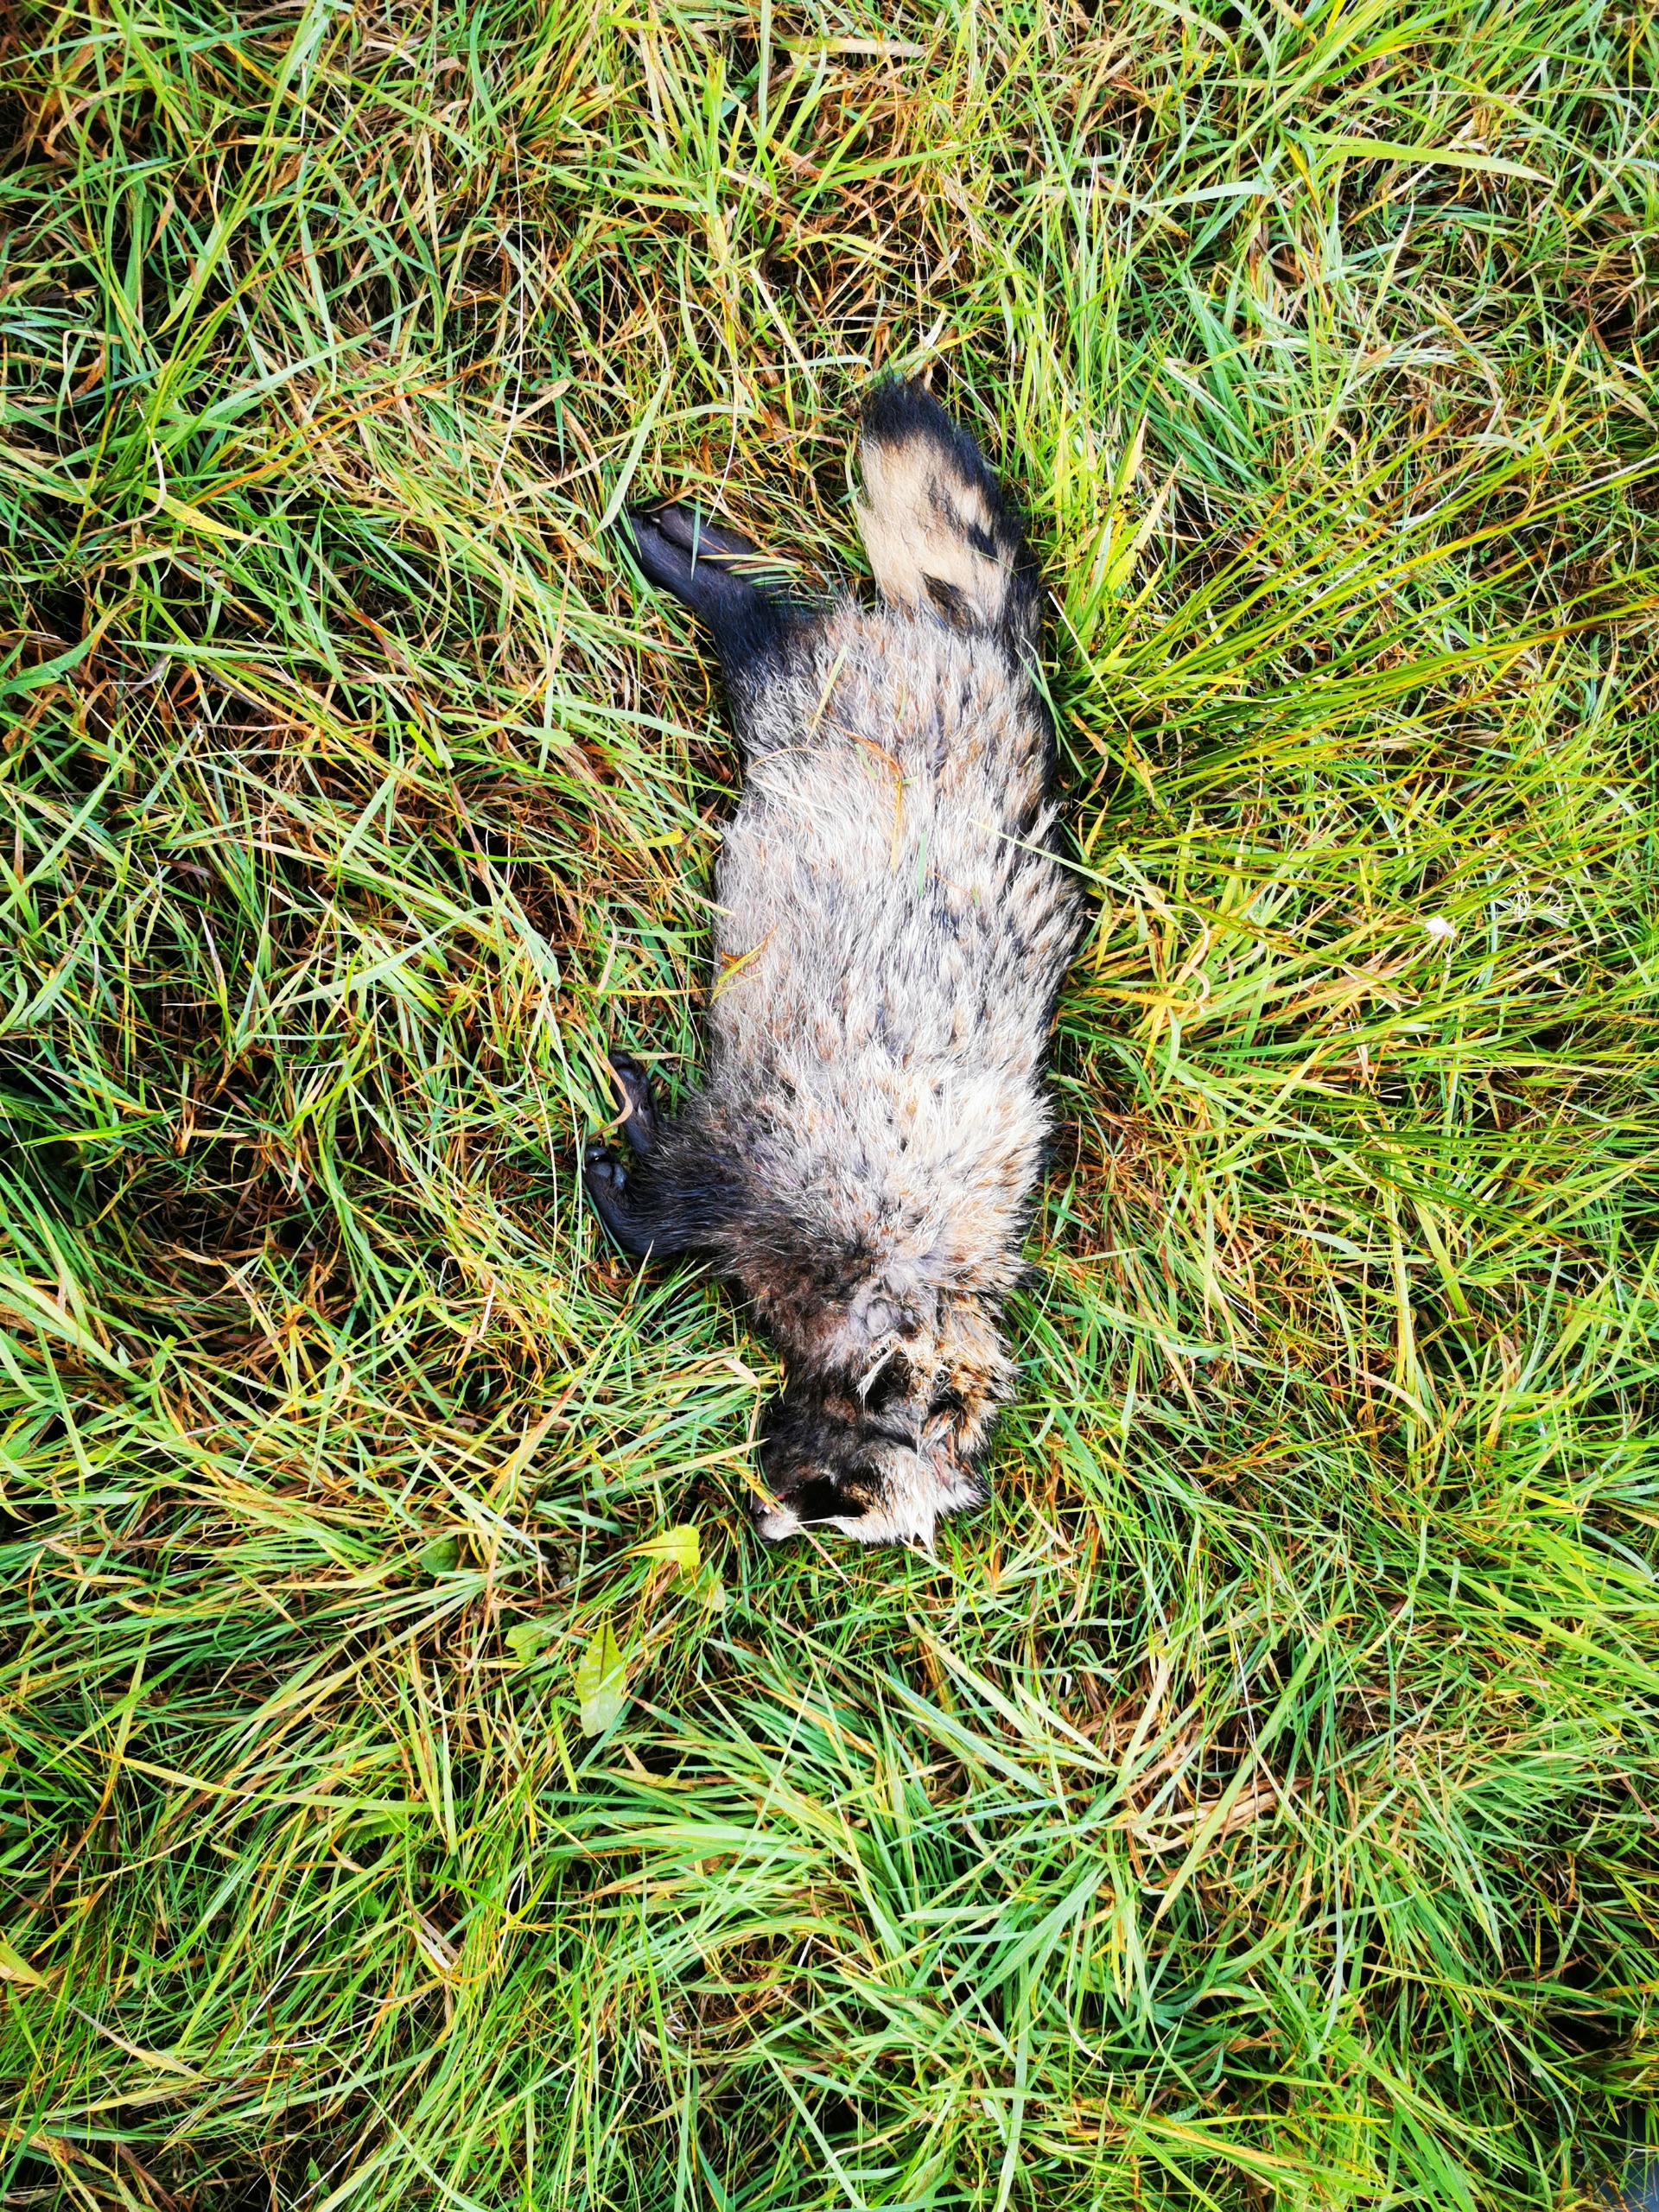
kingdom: Animalia
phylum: Chordata
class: Mammalia
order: Carnivora
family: Canidae
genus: Nyctereutes
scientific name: Nyctereutes procyonoides
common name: Mårhund
